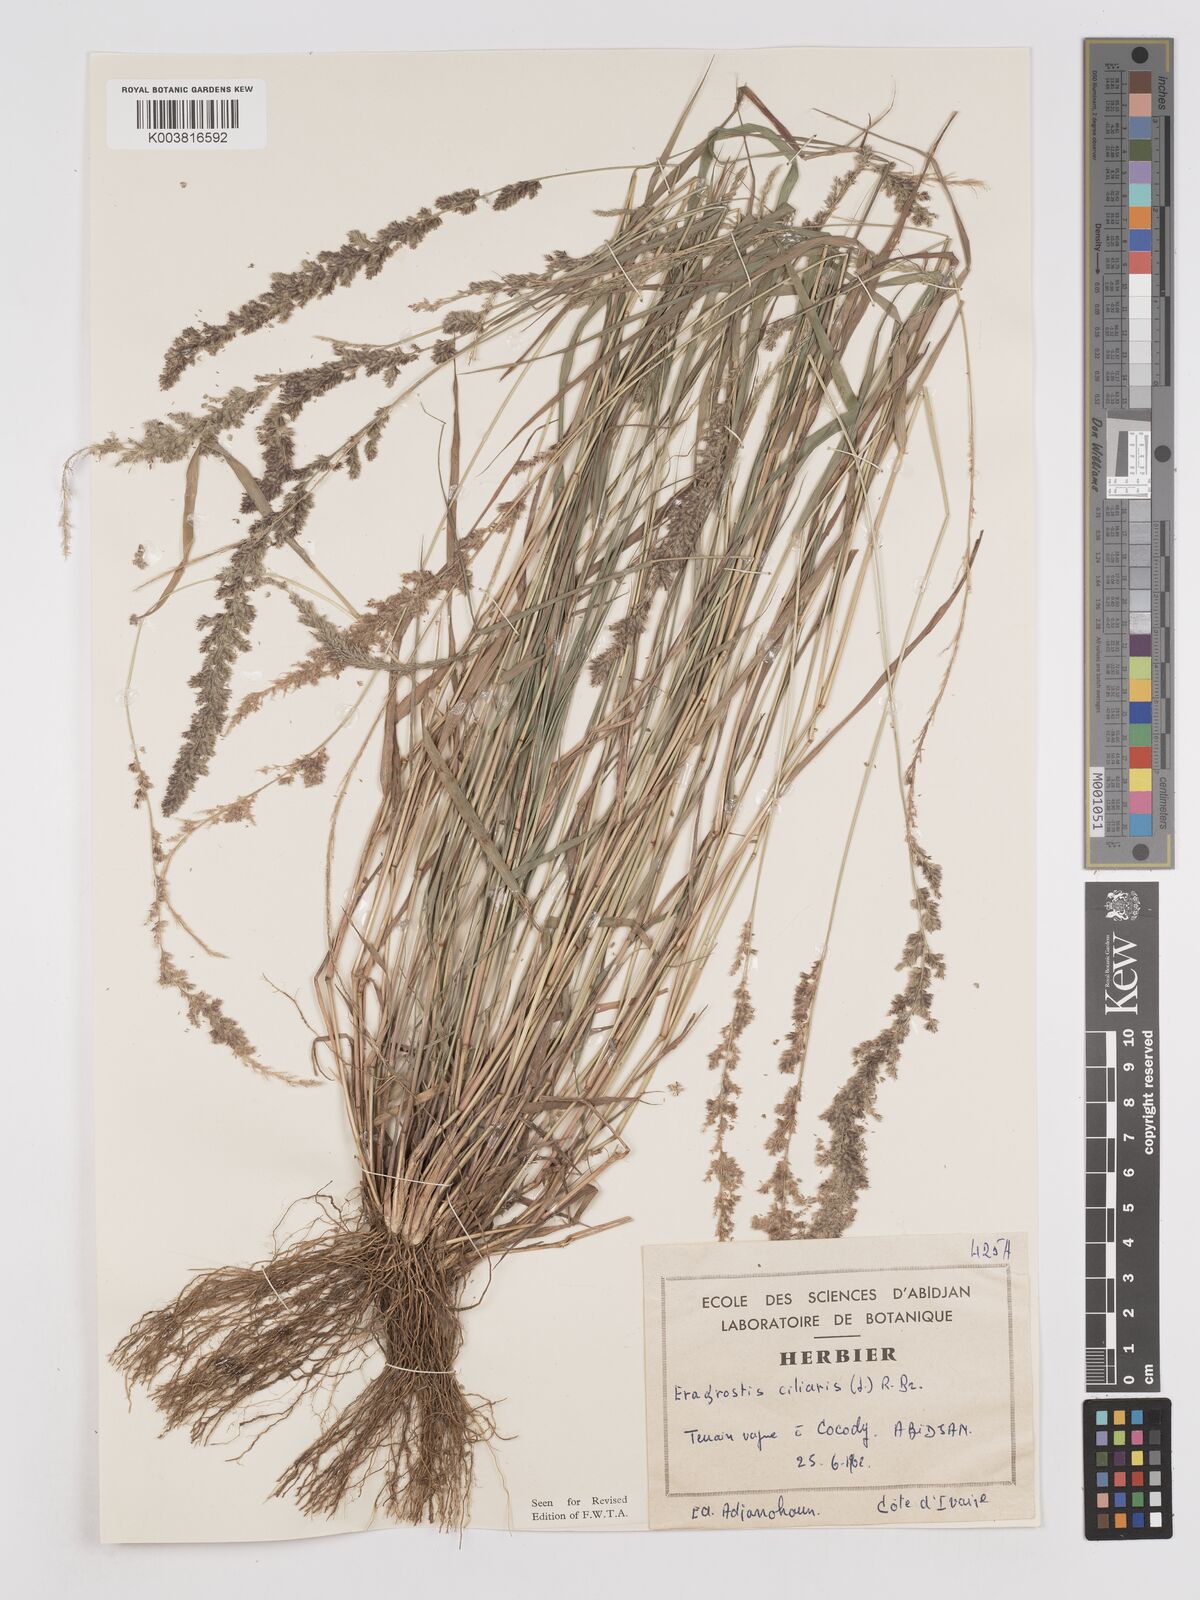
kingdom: Plantae
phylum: Tracheophyta
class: Liliopsida
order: Poales
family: Poaceae
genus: Eragrostis
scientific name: Eragrostis ciliaris
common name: Gophertail lovegrass
